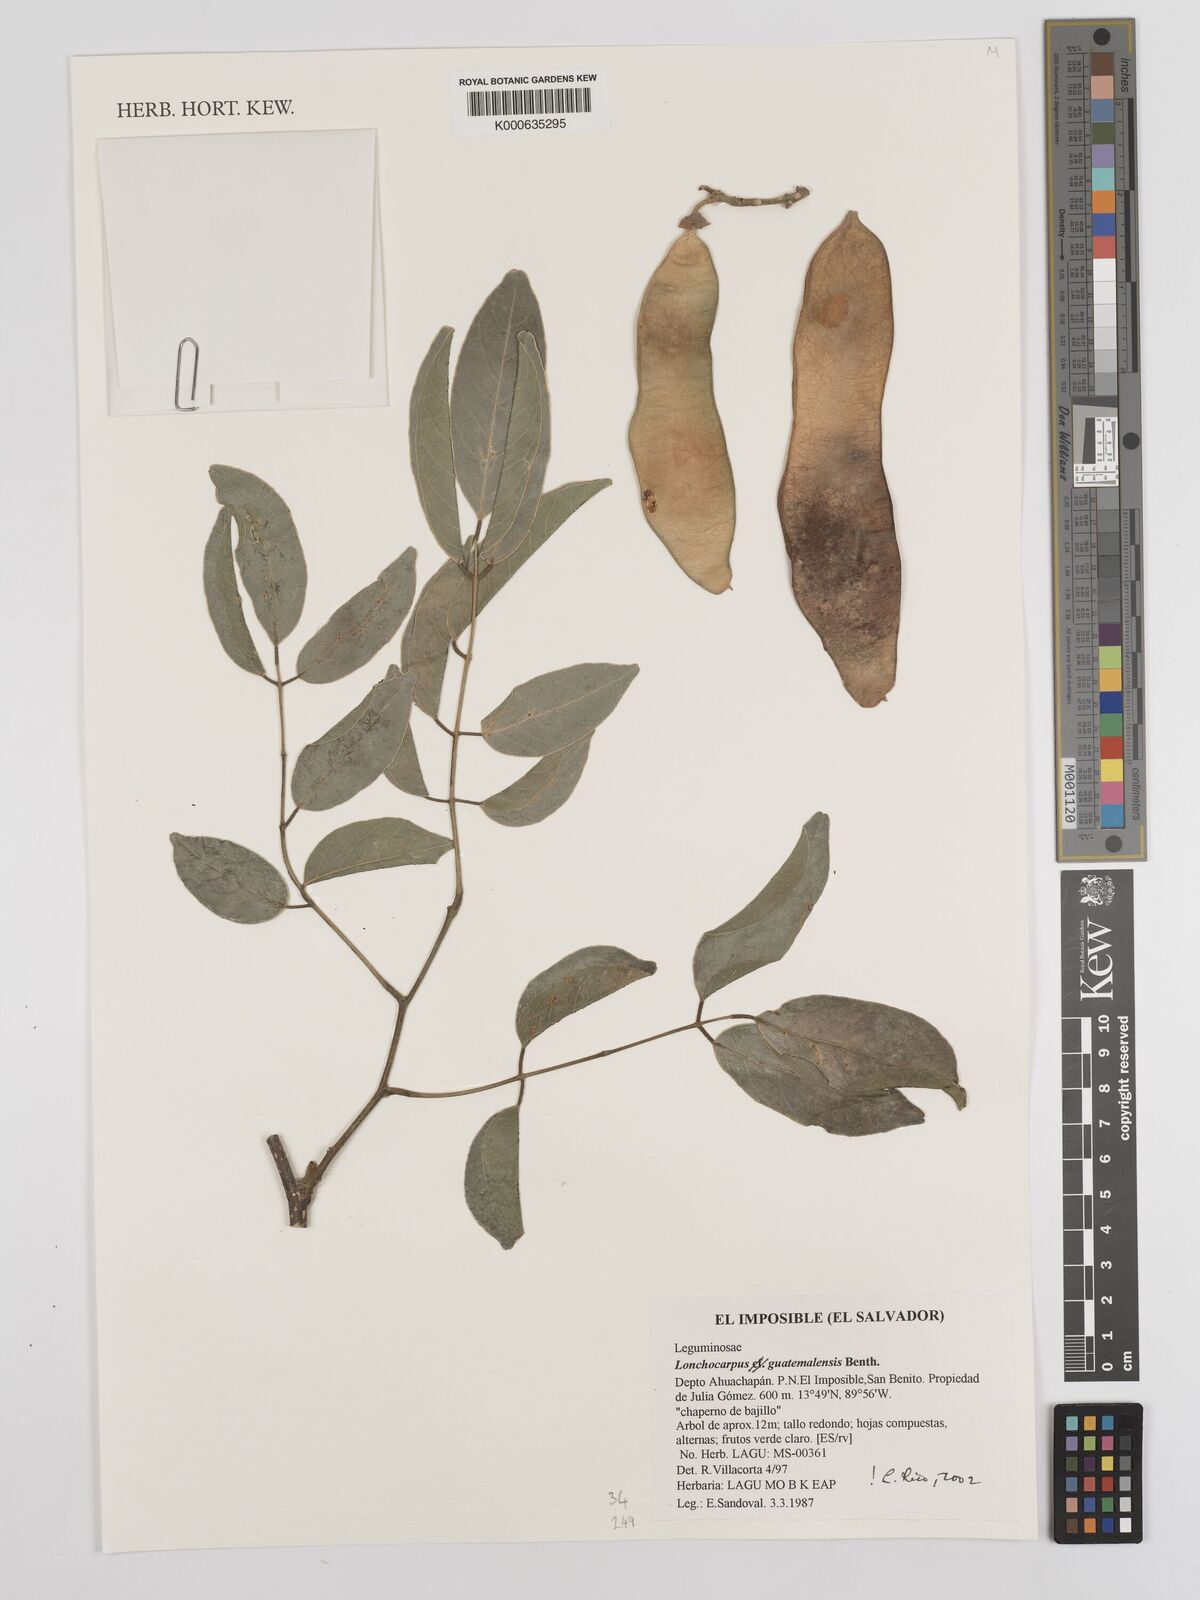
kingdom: Plantae
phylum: Tracheophyta
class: Magnoliopsida
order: Fabales
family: Fabaceae
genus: Lonchocarpus
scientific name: Lonchocarpus guatemalensis
